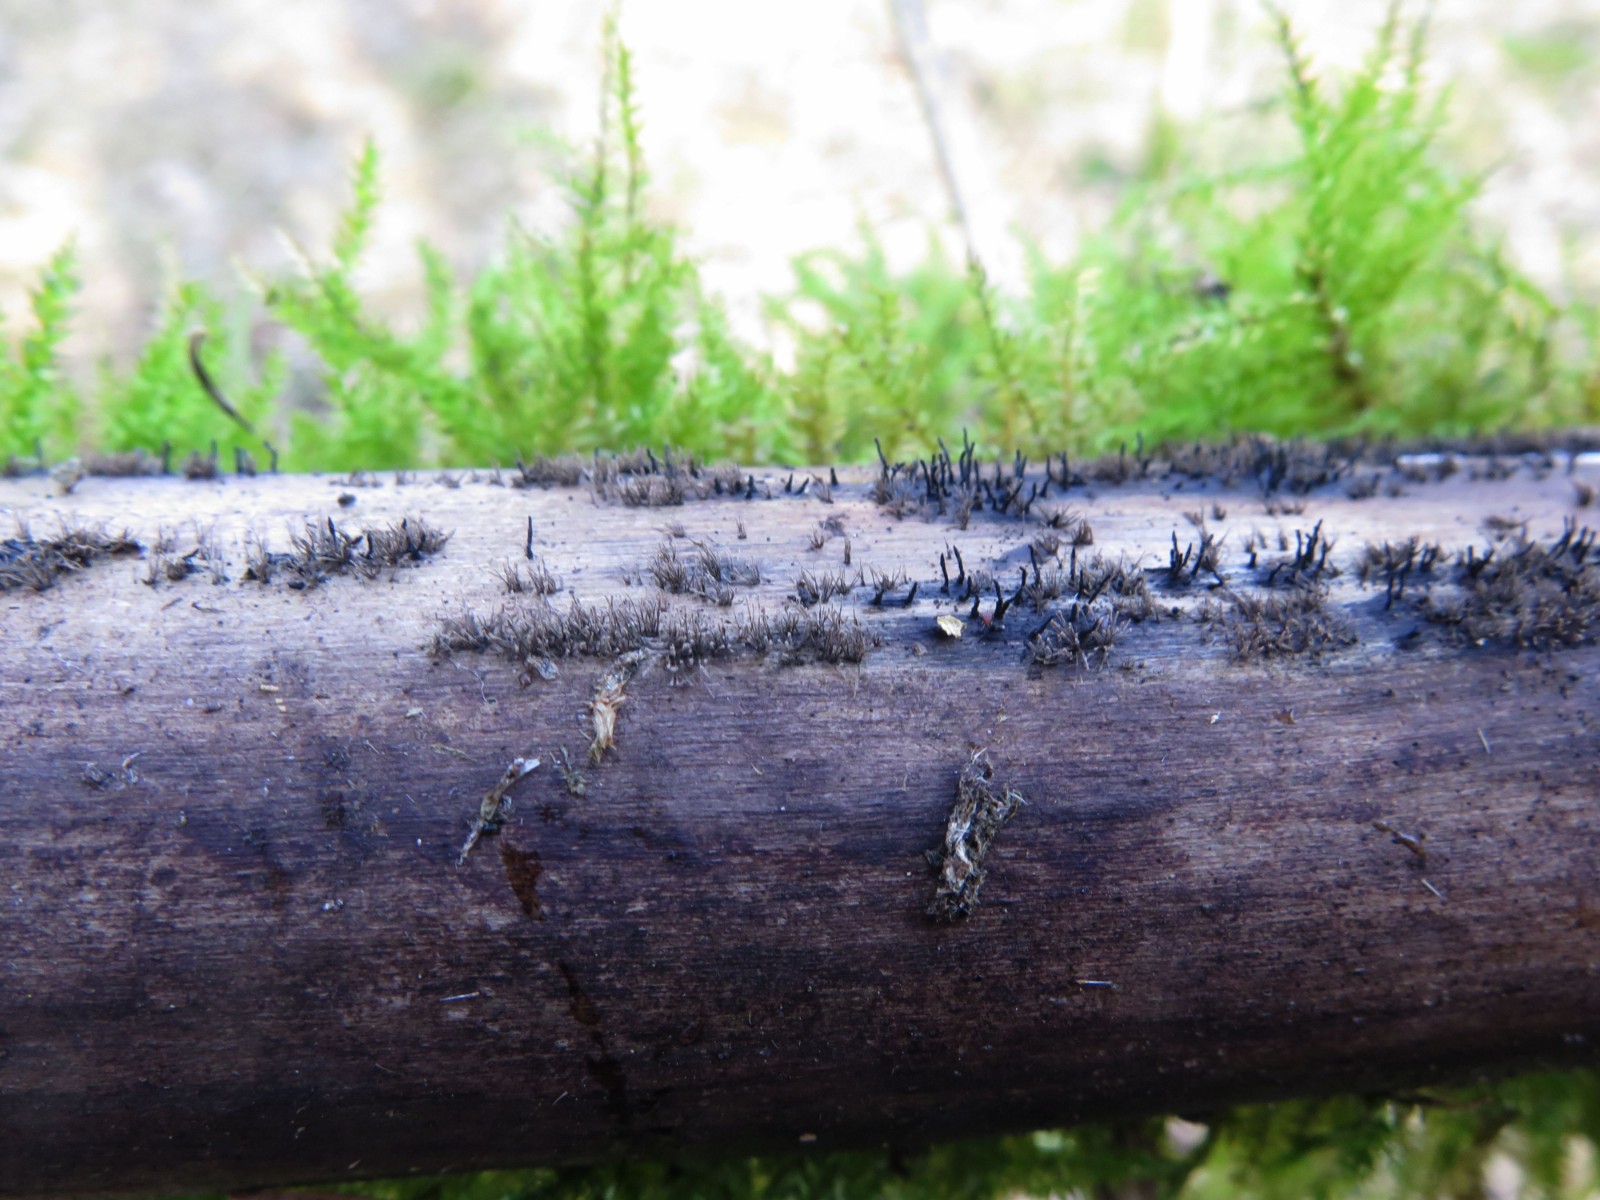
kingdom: Fungi
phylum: Ascomycota
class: Sordariomycetes
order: Xylariales
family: Diatrypaceae
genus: Peroneutypa
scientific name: Peroneutypa scoparia
